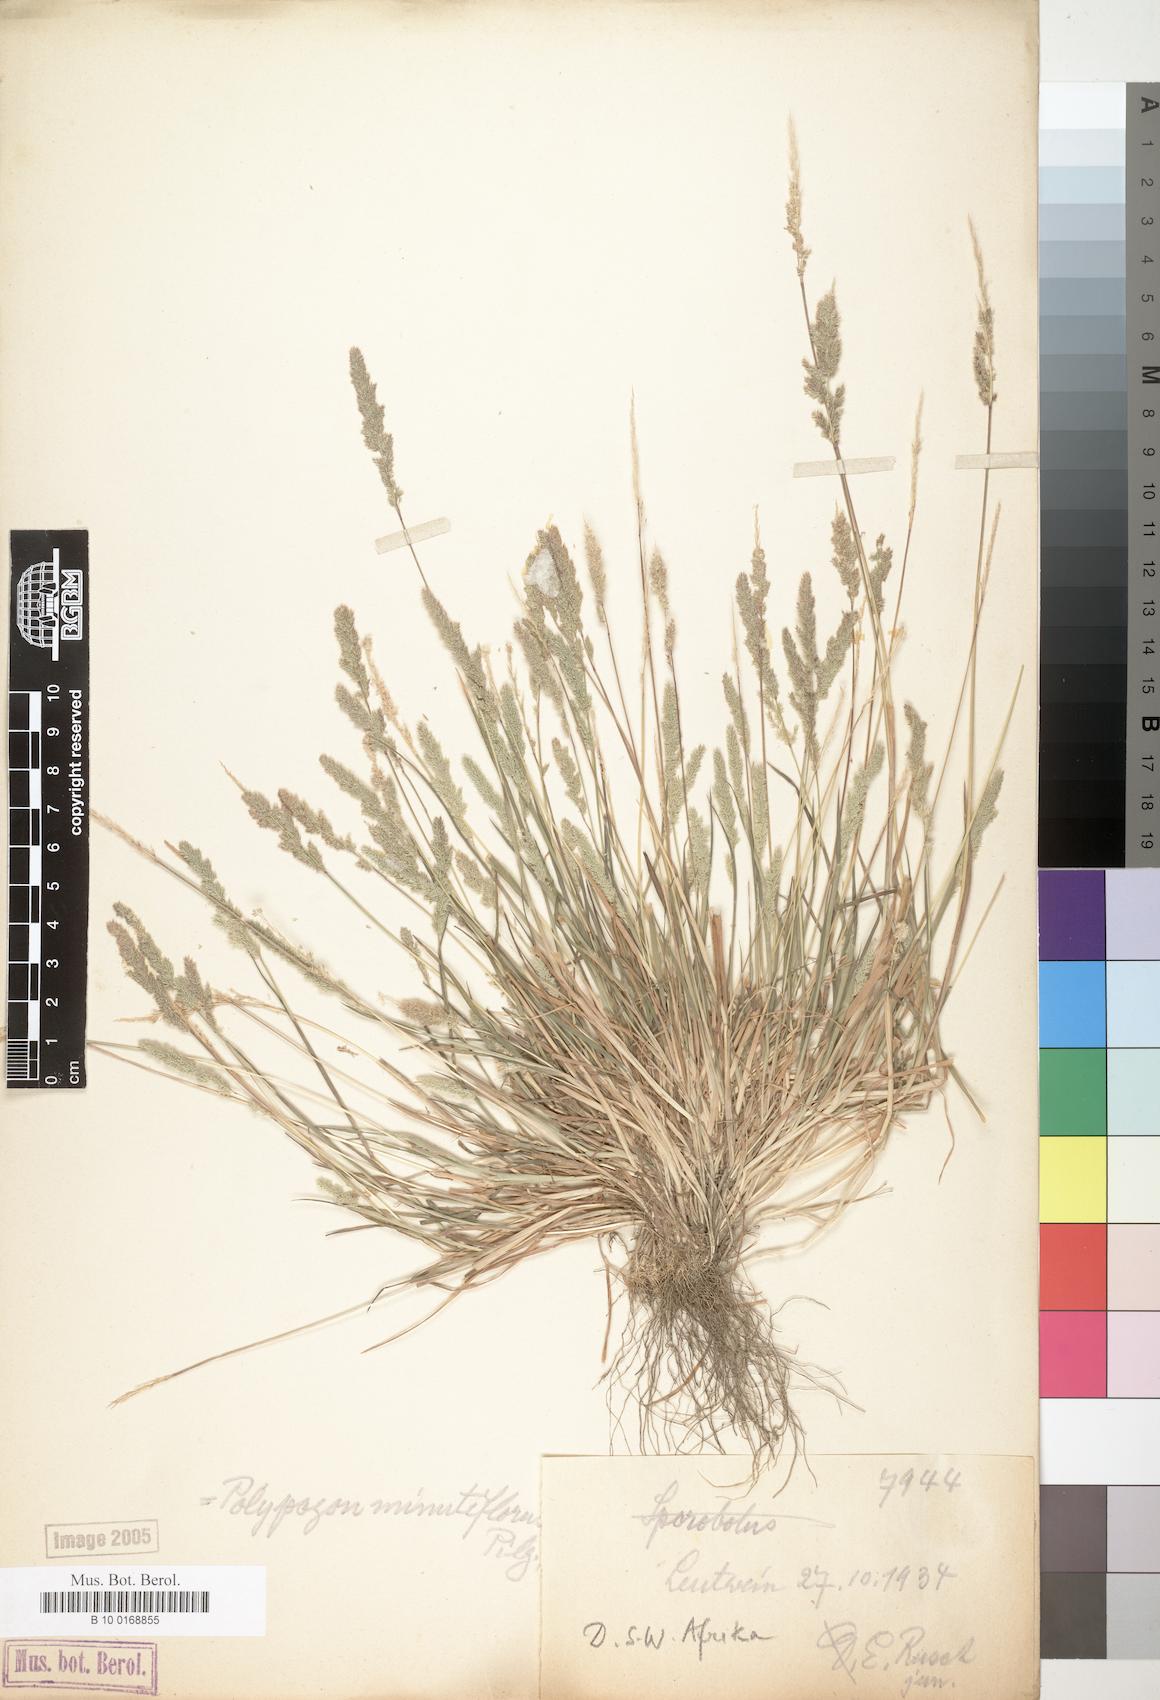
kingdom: Plantae
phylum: Tracheophyta
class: Liliopsida
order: Poales
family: Poaceae
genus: Polypogon
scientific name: Polypogon griquensis
